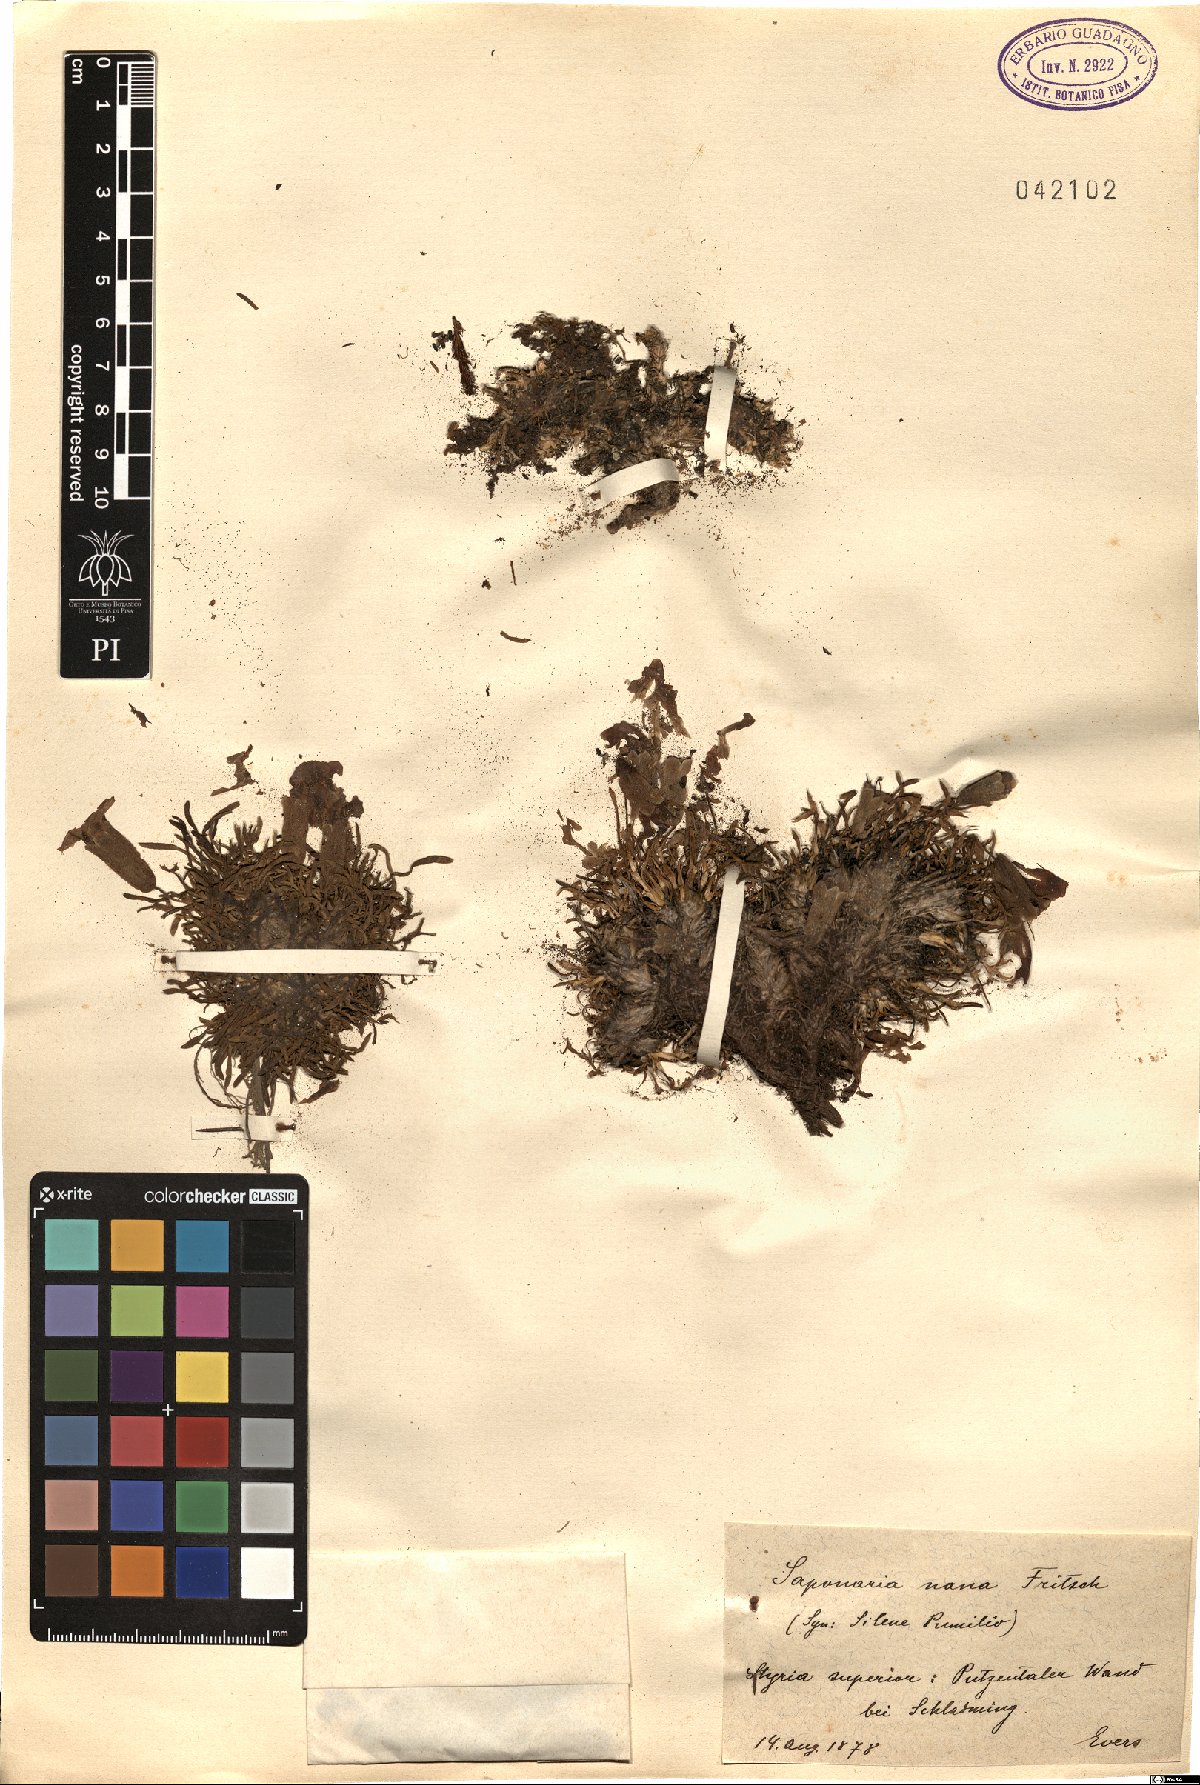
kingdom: Plantae
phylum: Tracheophyta
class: Magnoliopsida
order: Caryophyllales
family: Caryophyllaceae
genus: Saponaria
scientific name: Saponaria pumila
